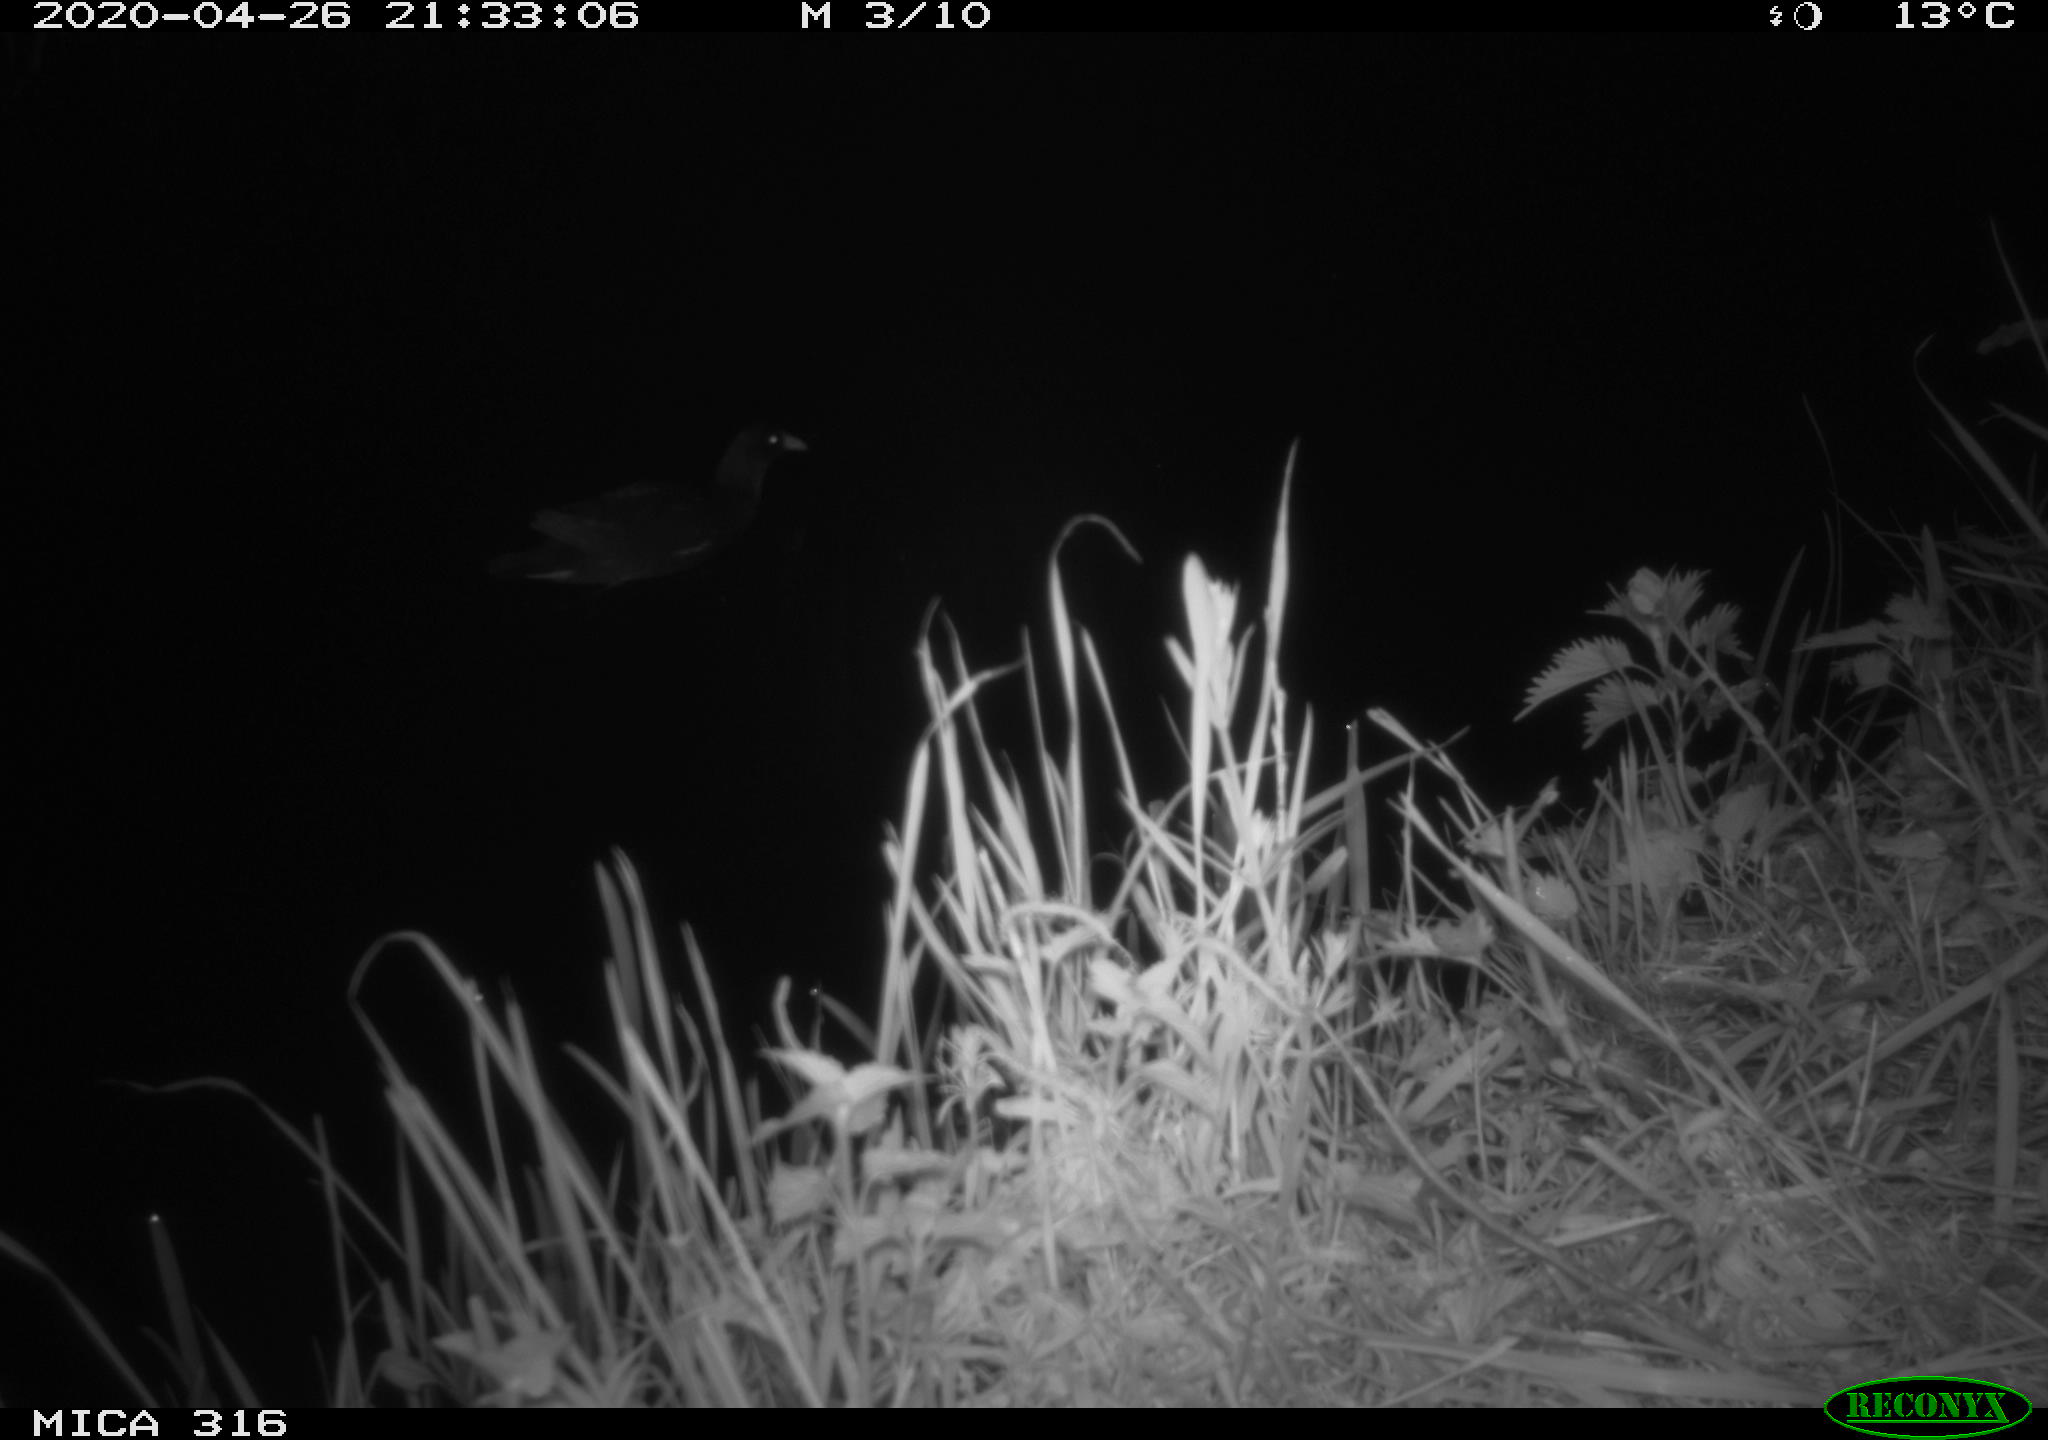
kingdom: Animalia
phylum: Chordata
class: Aves
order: Gruiformes
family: Rallidae
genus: Gallinula
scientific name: Gallinula chloropus
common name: Common moorhen
